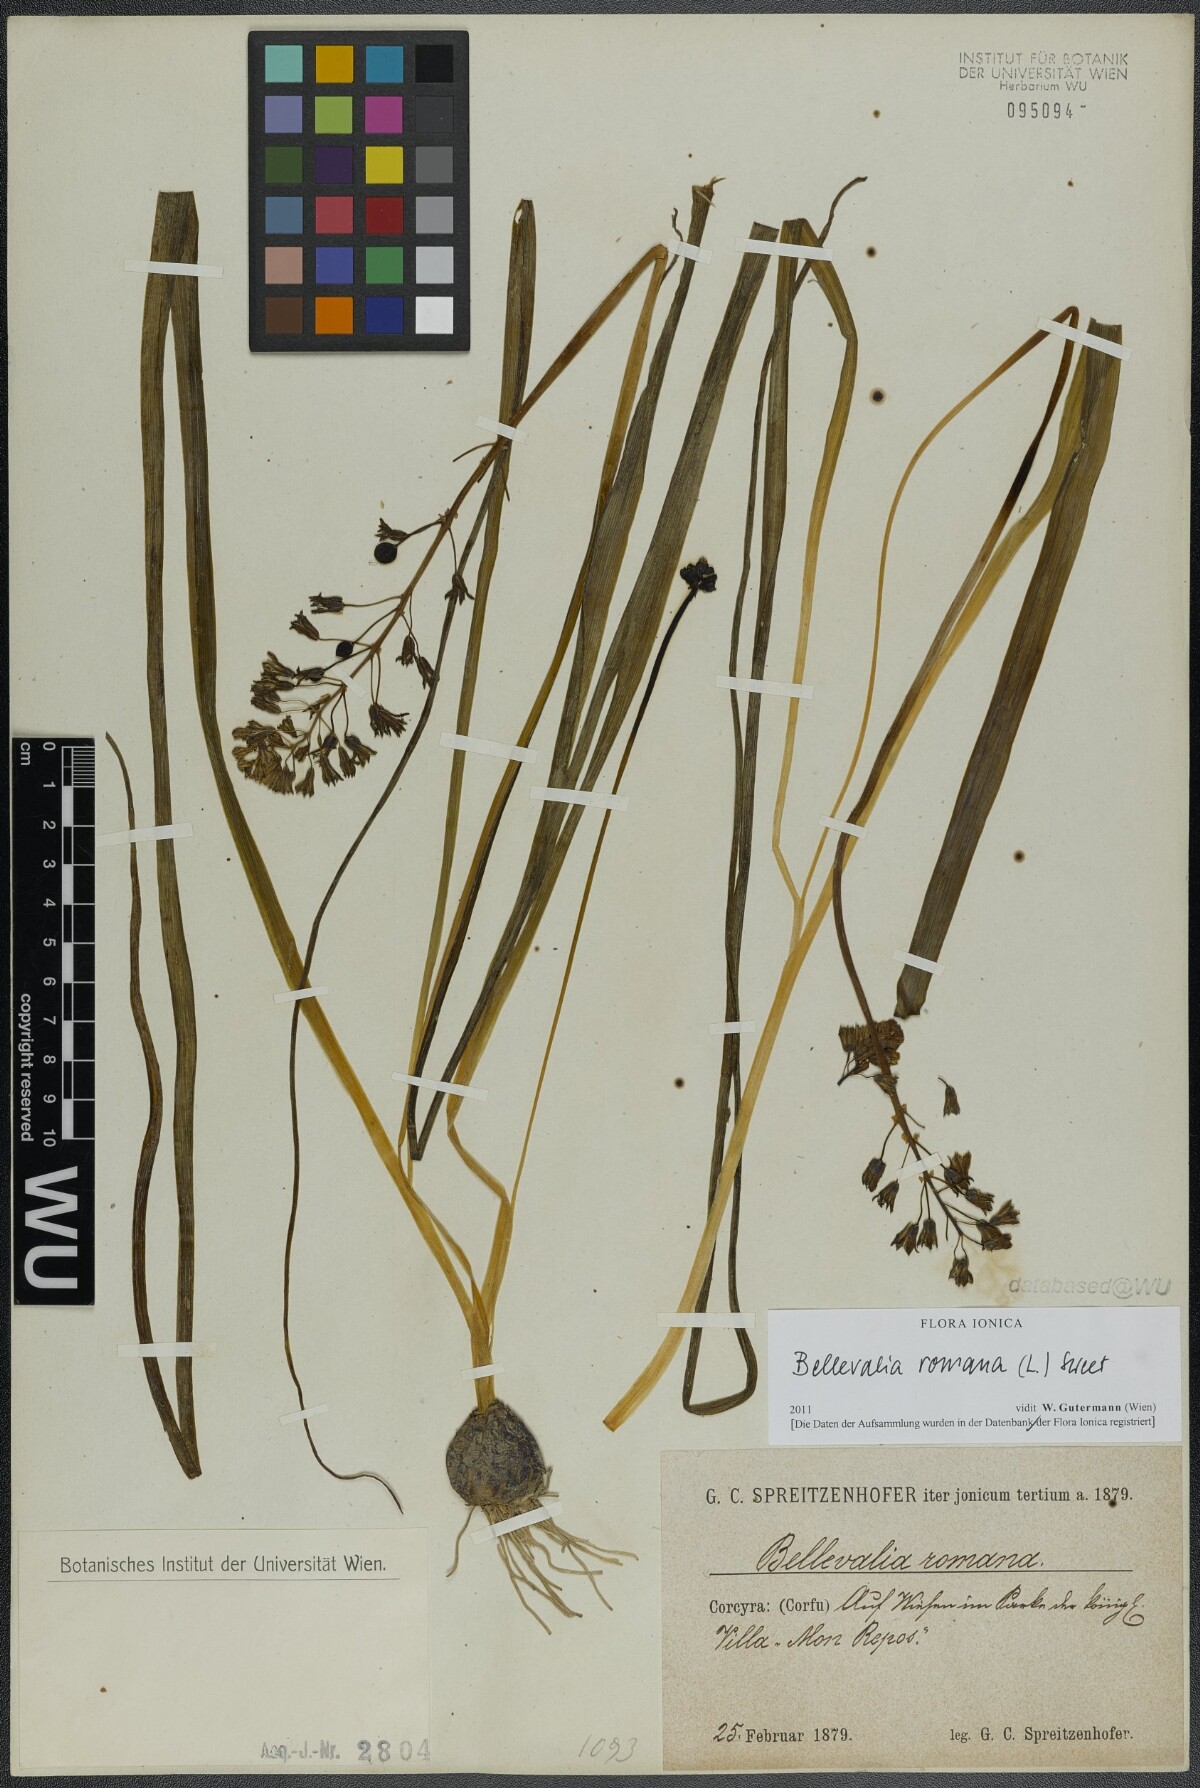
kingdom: Plantae
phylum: Tracheophyta
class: Liliopsida
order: Asparagales
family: Asparagaceae
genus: Bellevalia
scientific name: Bellevalia romana
